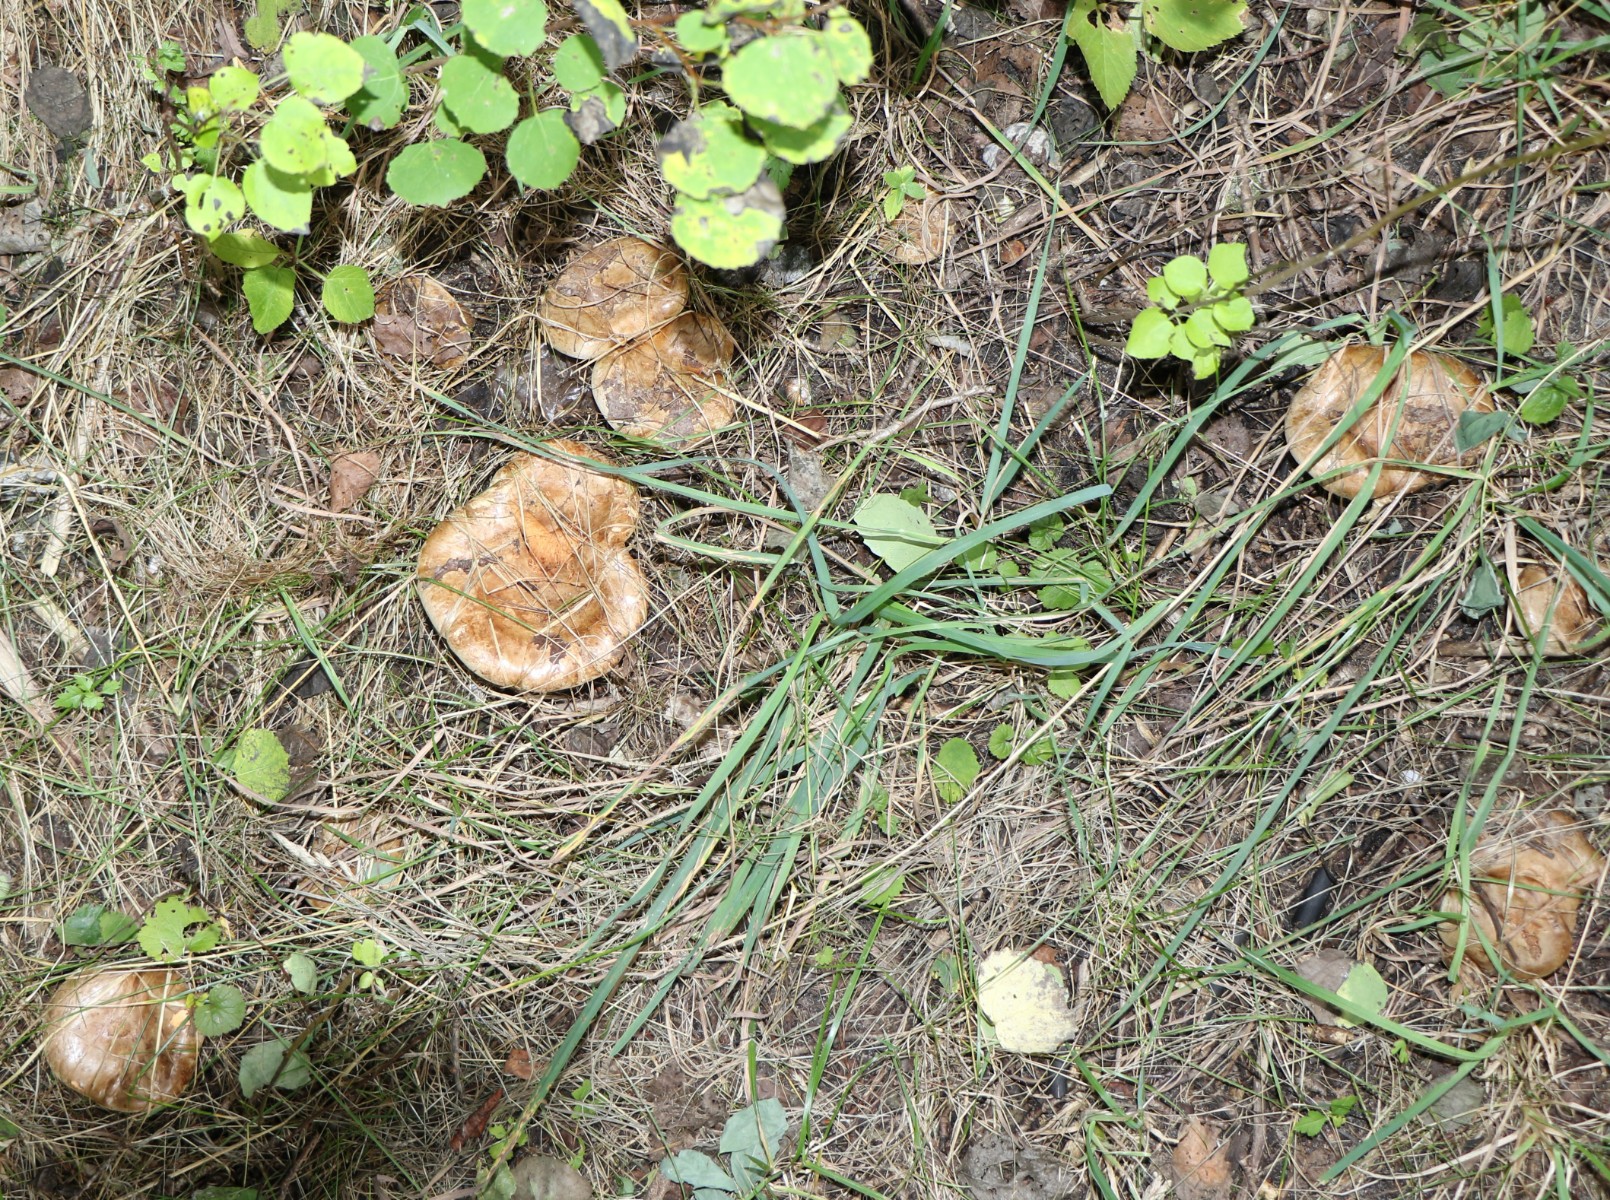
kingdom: Fungi
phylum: Basidiomycota
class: Agaricomycetes
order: Boletales
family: Paxillaceae
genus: Paxillus
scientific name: Paxillus obscurisporus
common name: mahognisporet netbladhat
